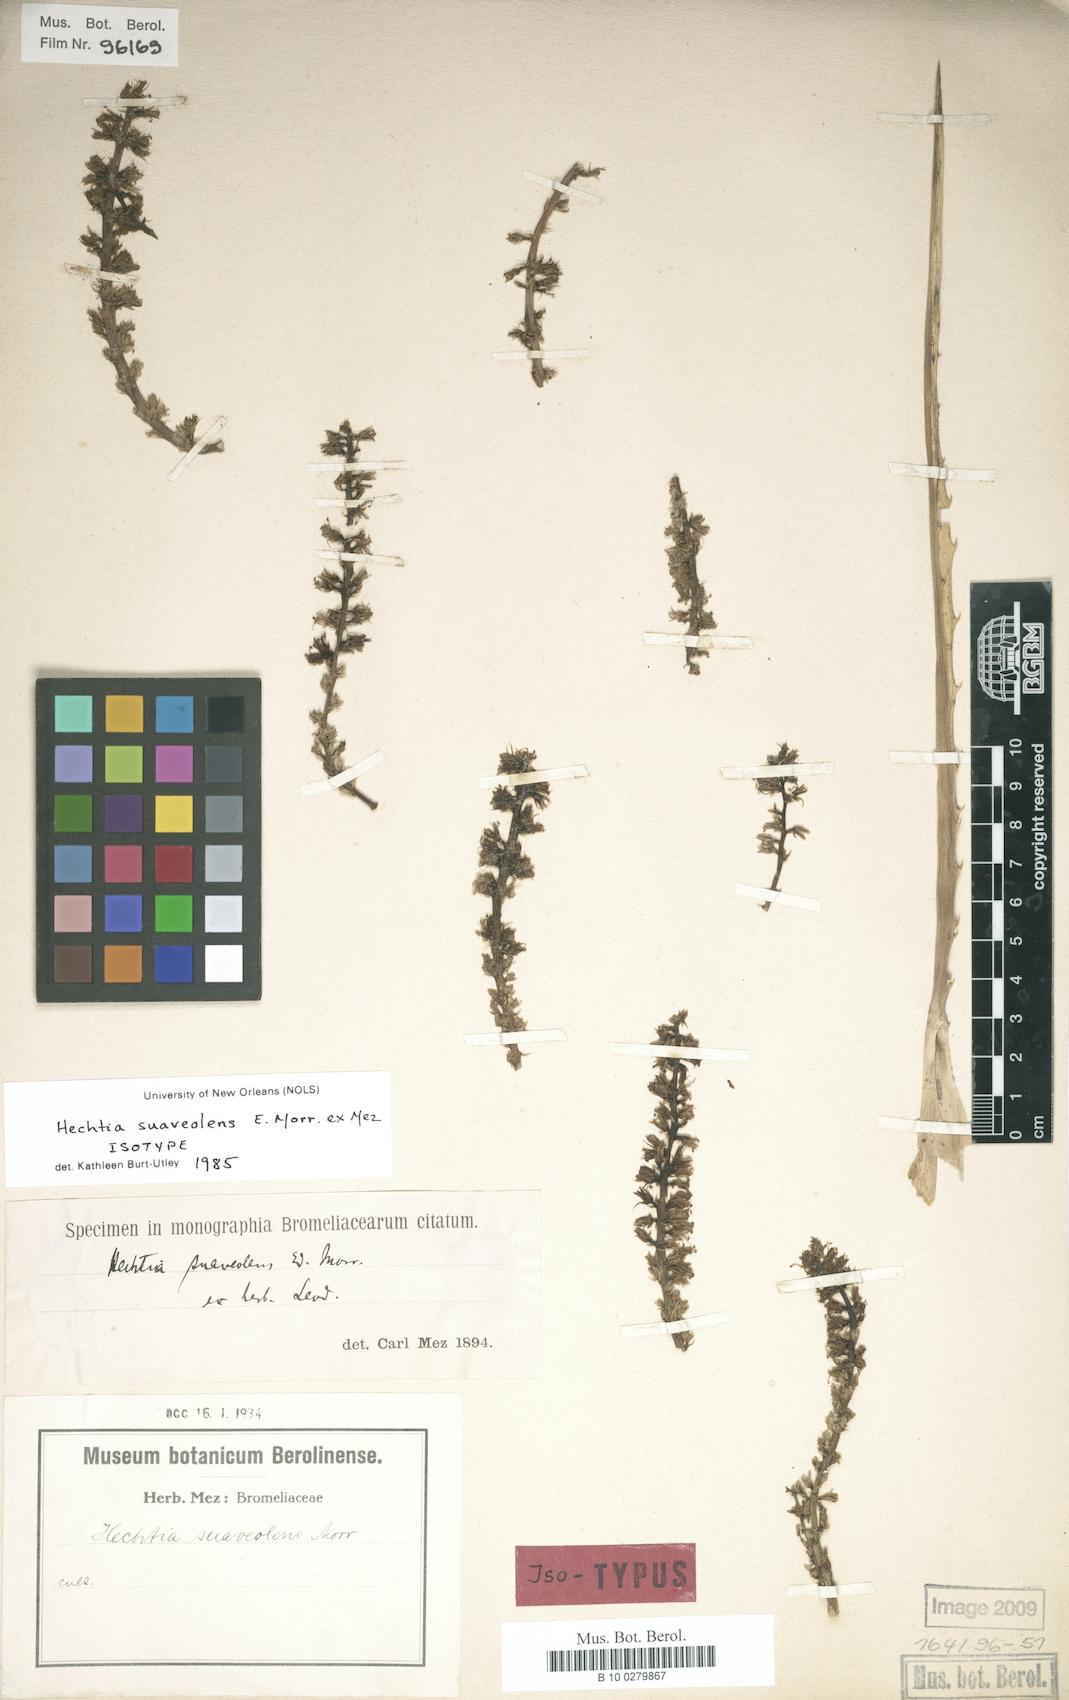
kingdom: Plantae
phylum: Tracheophyta
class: Liliopsida
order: Poales
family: Bromeliaceae
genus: Hechtia
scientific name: Hechtia suaveolens
